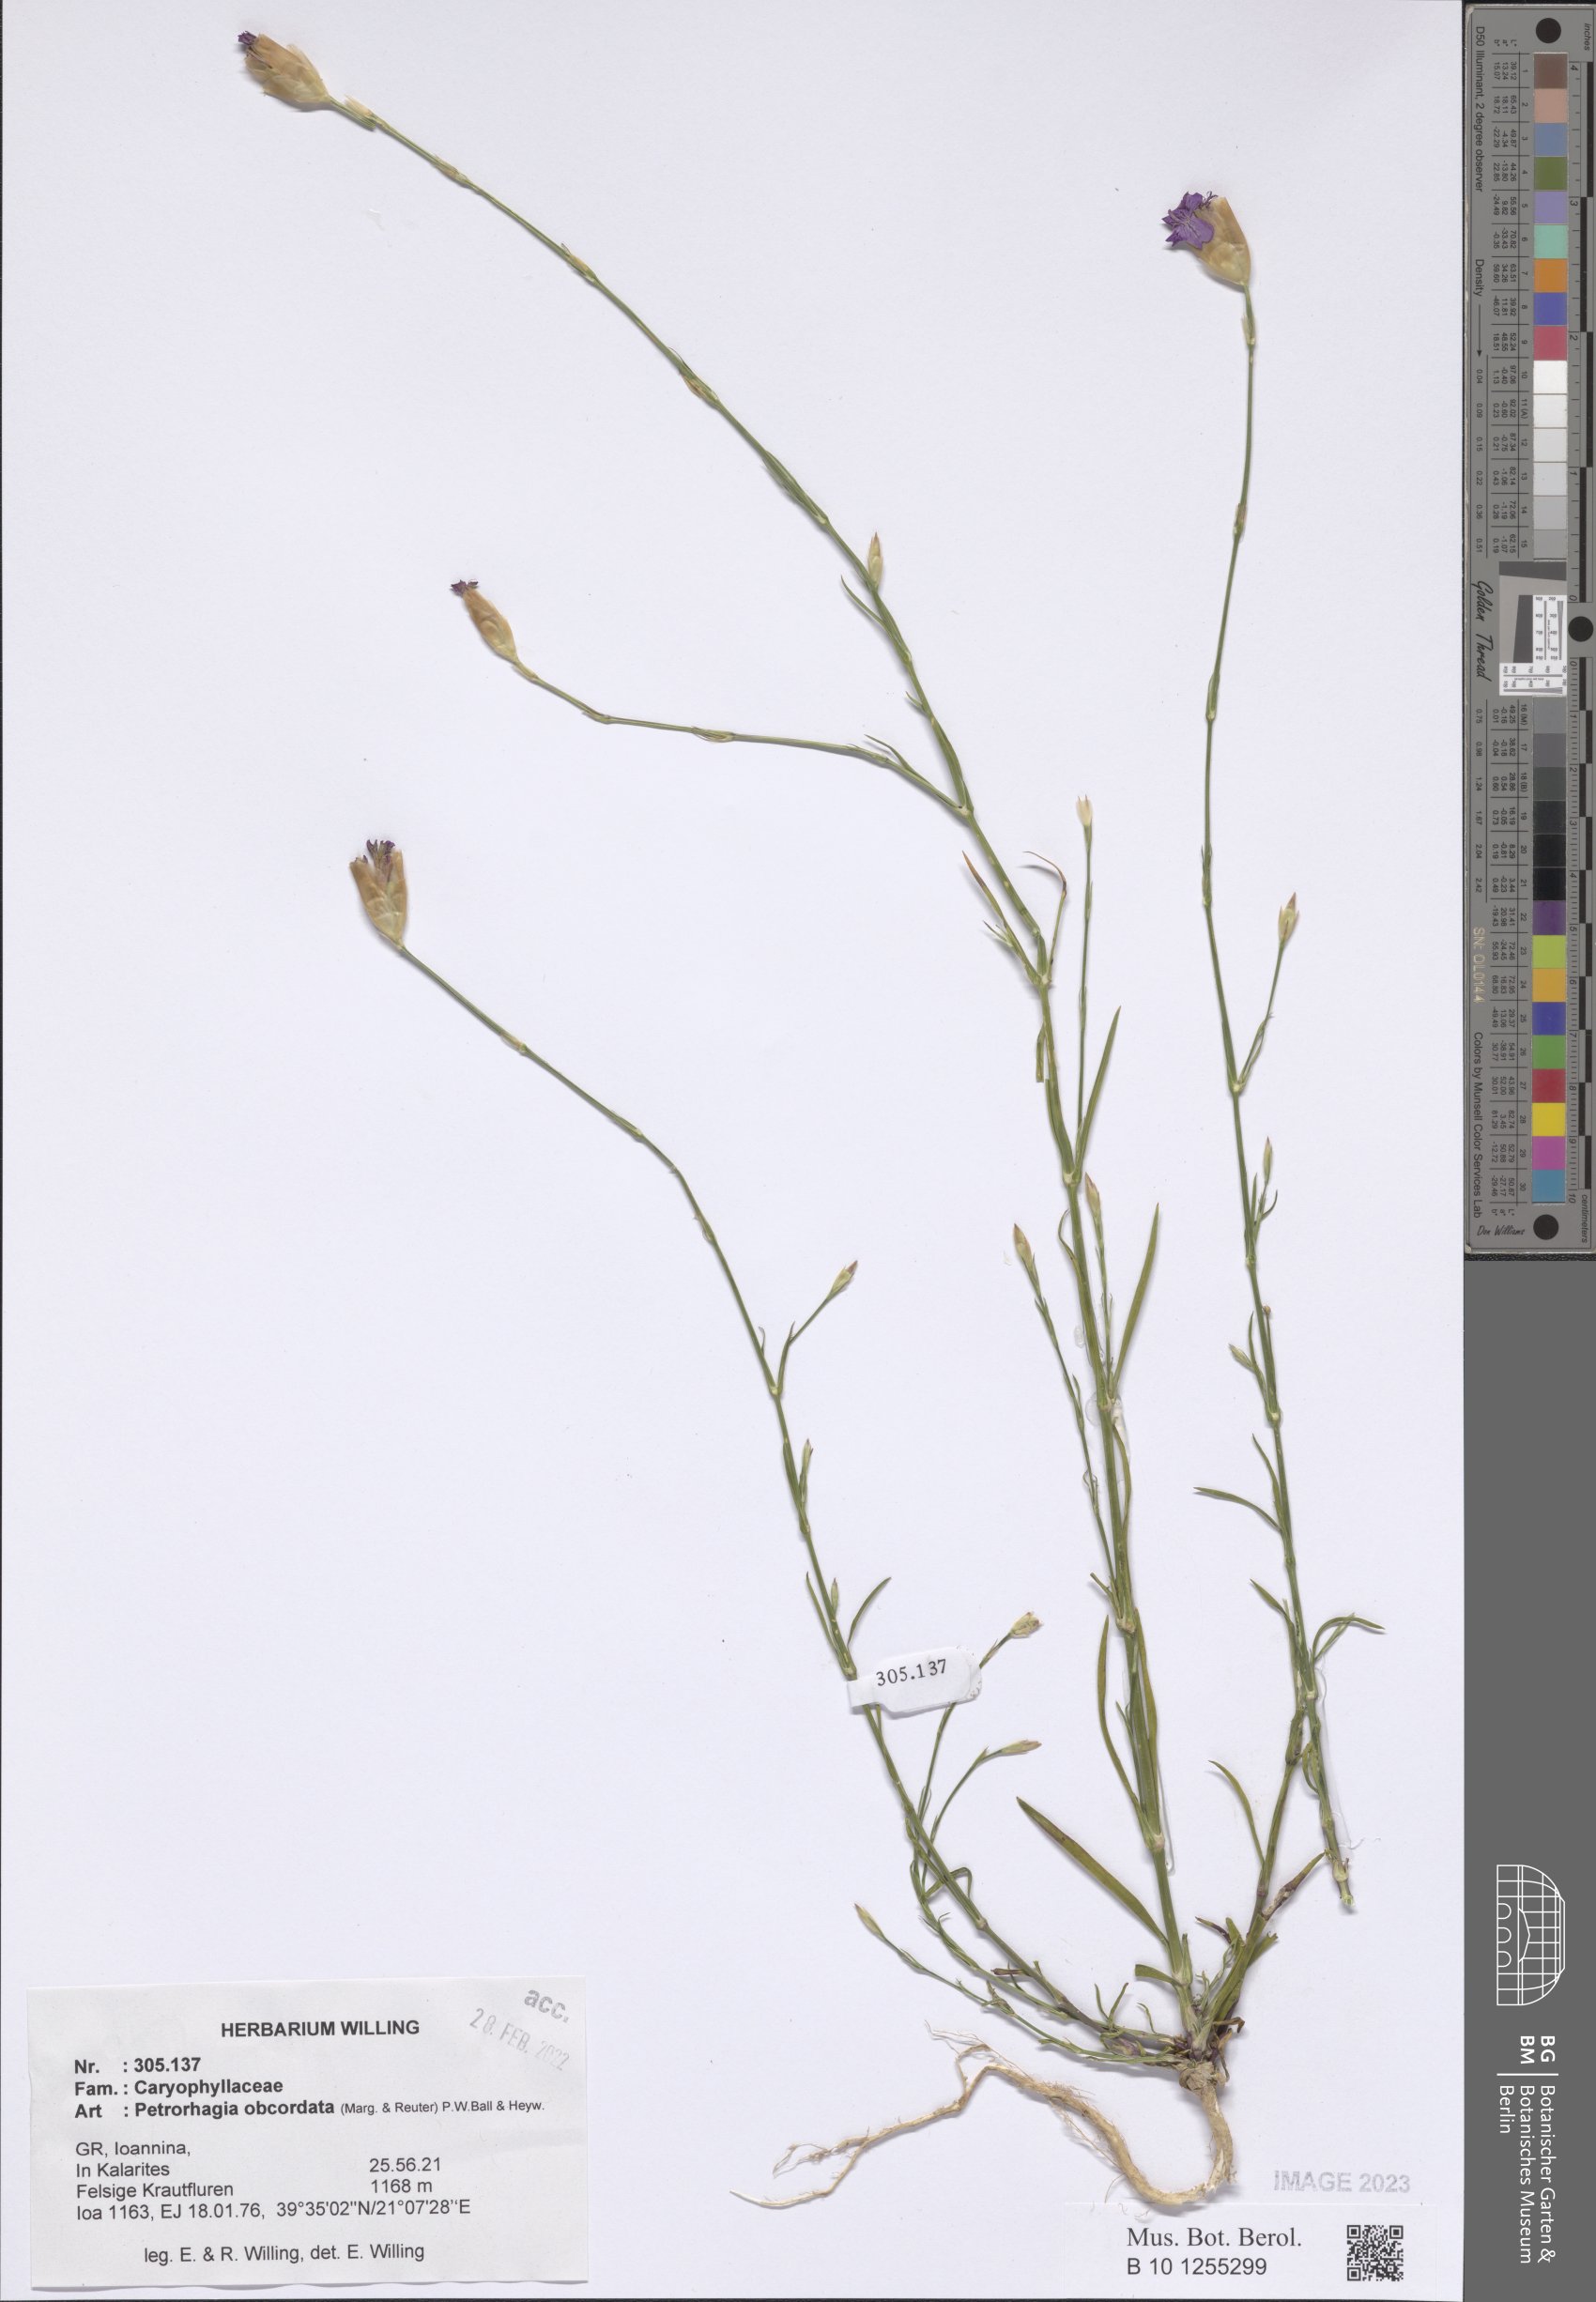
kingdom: Plantae
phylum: Tracheophyta
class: Magnoliopsida
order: Caryophyllales
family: Caryophyllaceae
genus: Petrorhagia
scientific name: Petrorhagia obcordata
